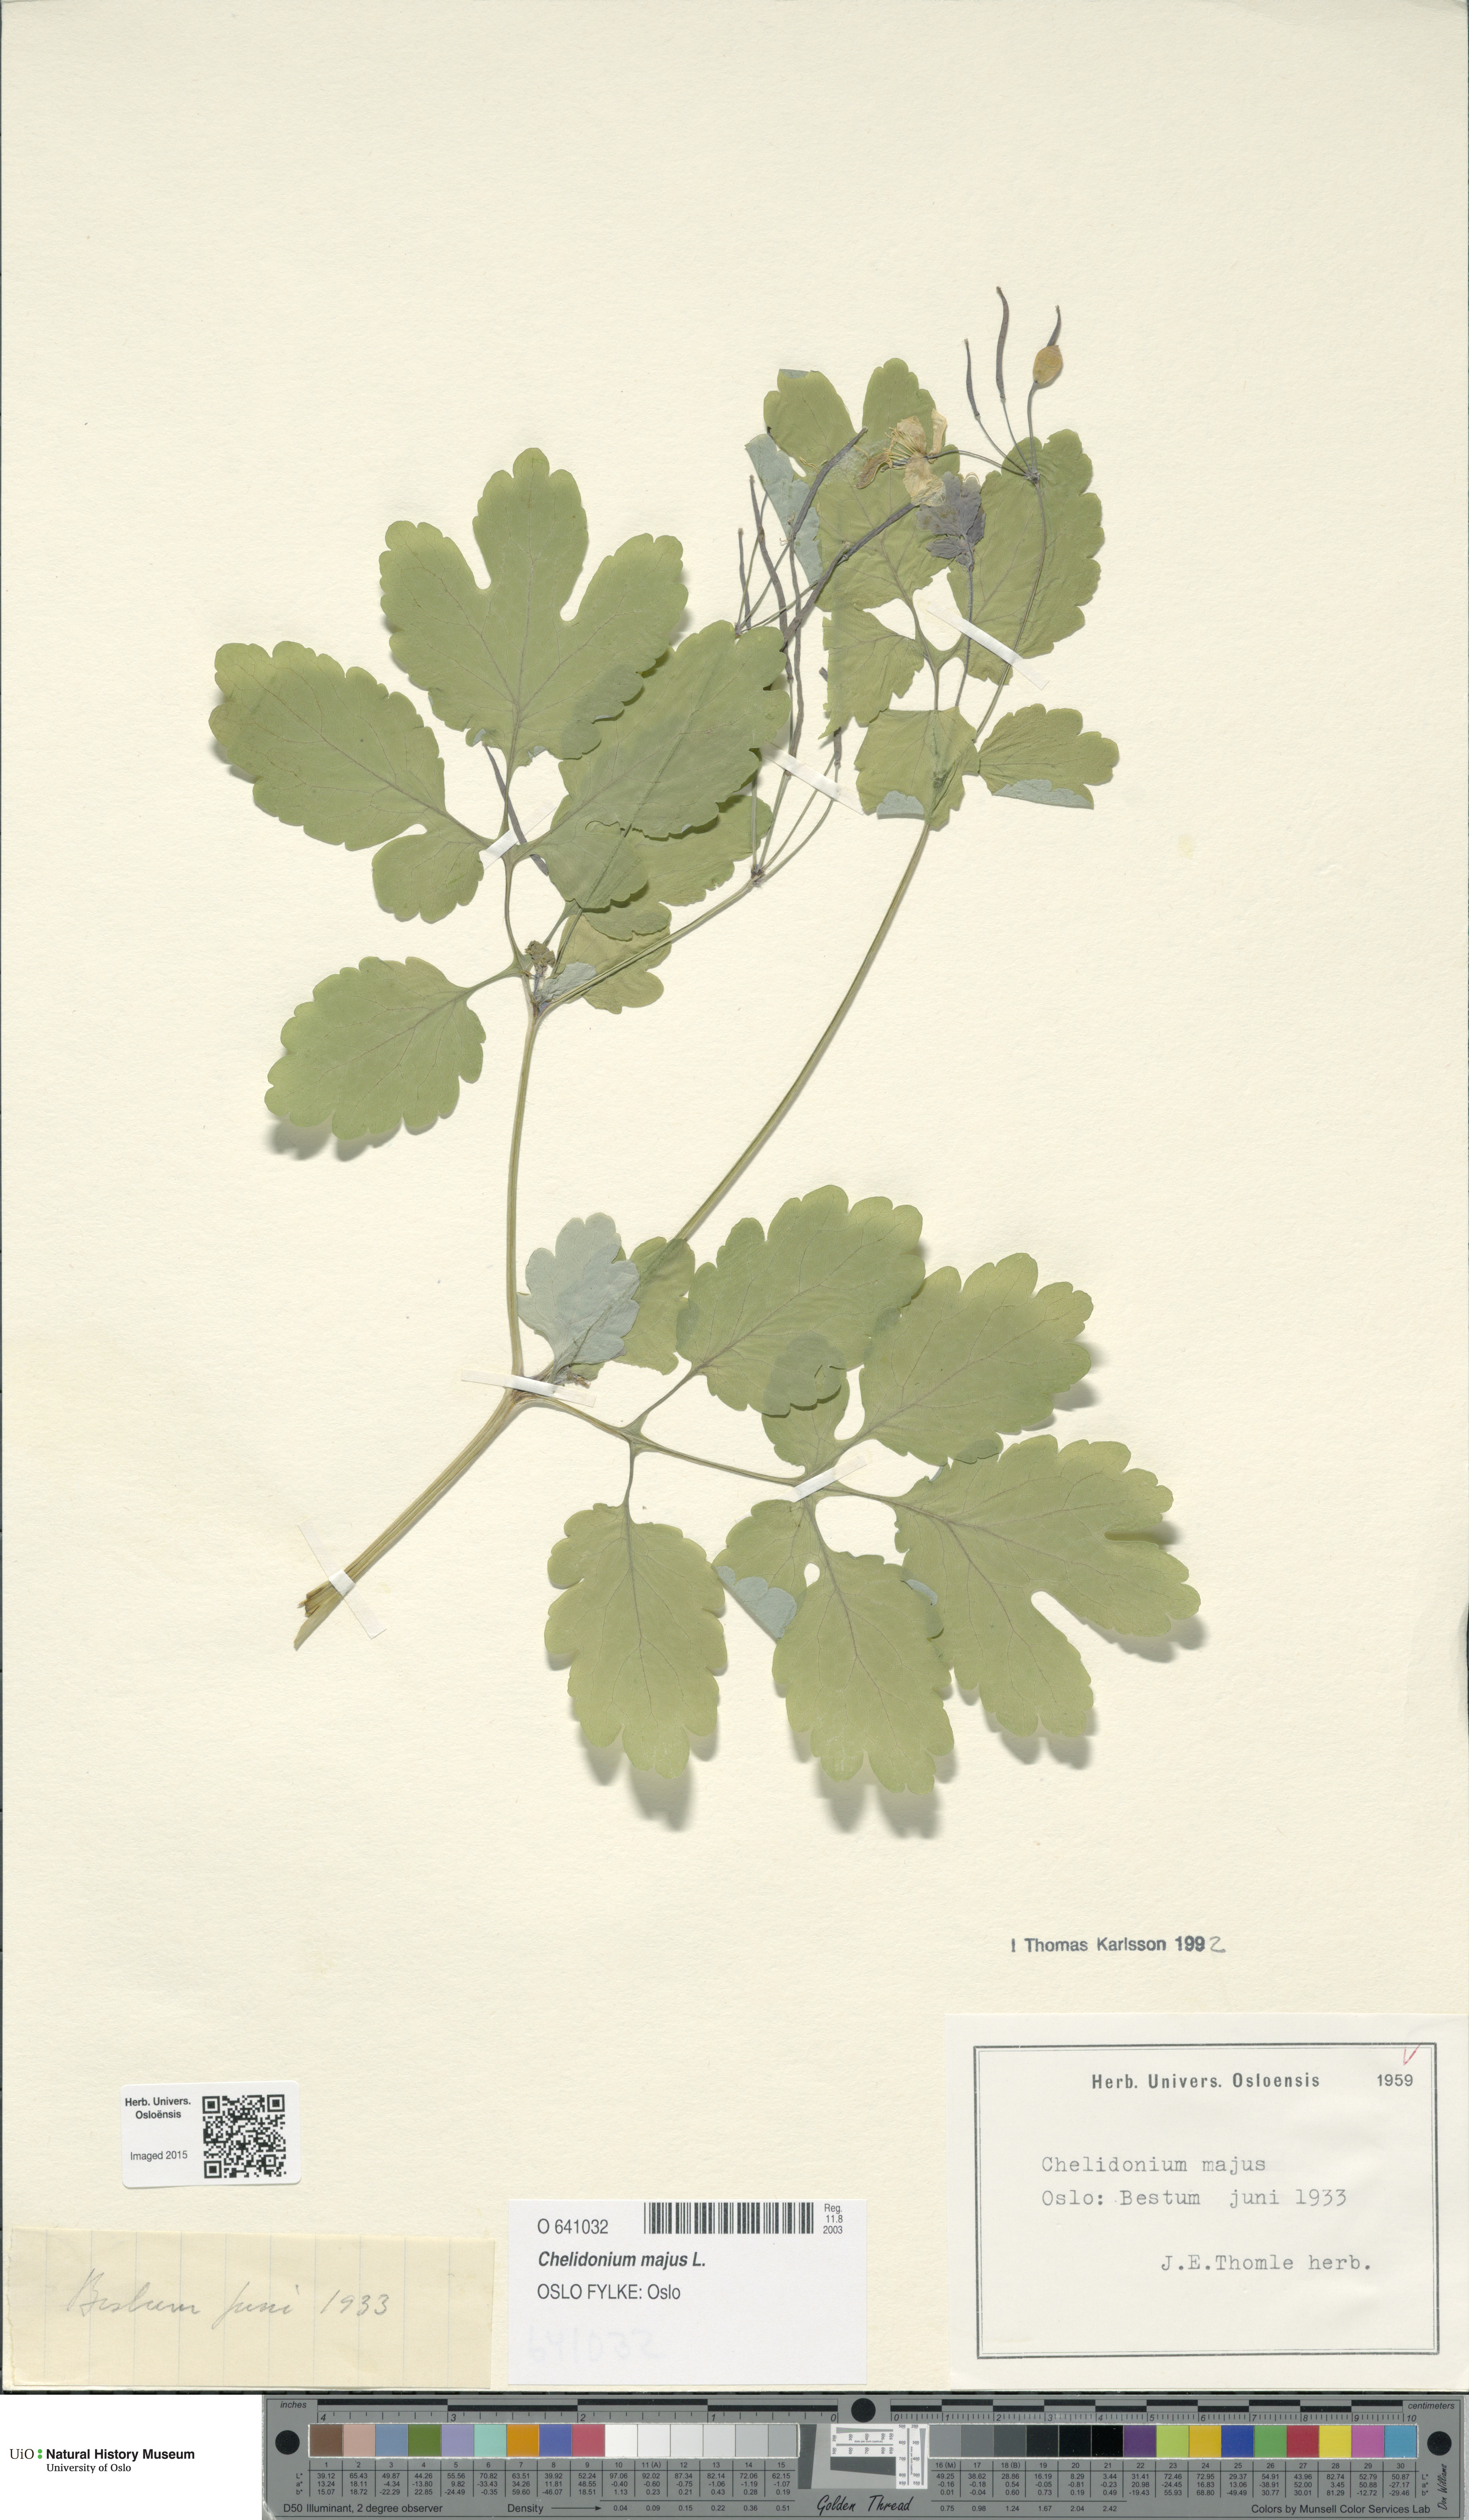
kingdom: Plantae
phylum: Tracheophyta
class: Magnoliopsida
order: Ranunculales
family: Papaveraceae
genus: Chelidonium
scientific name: Chelidonium majus
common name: Greater celandine
